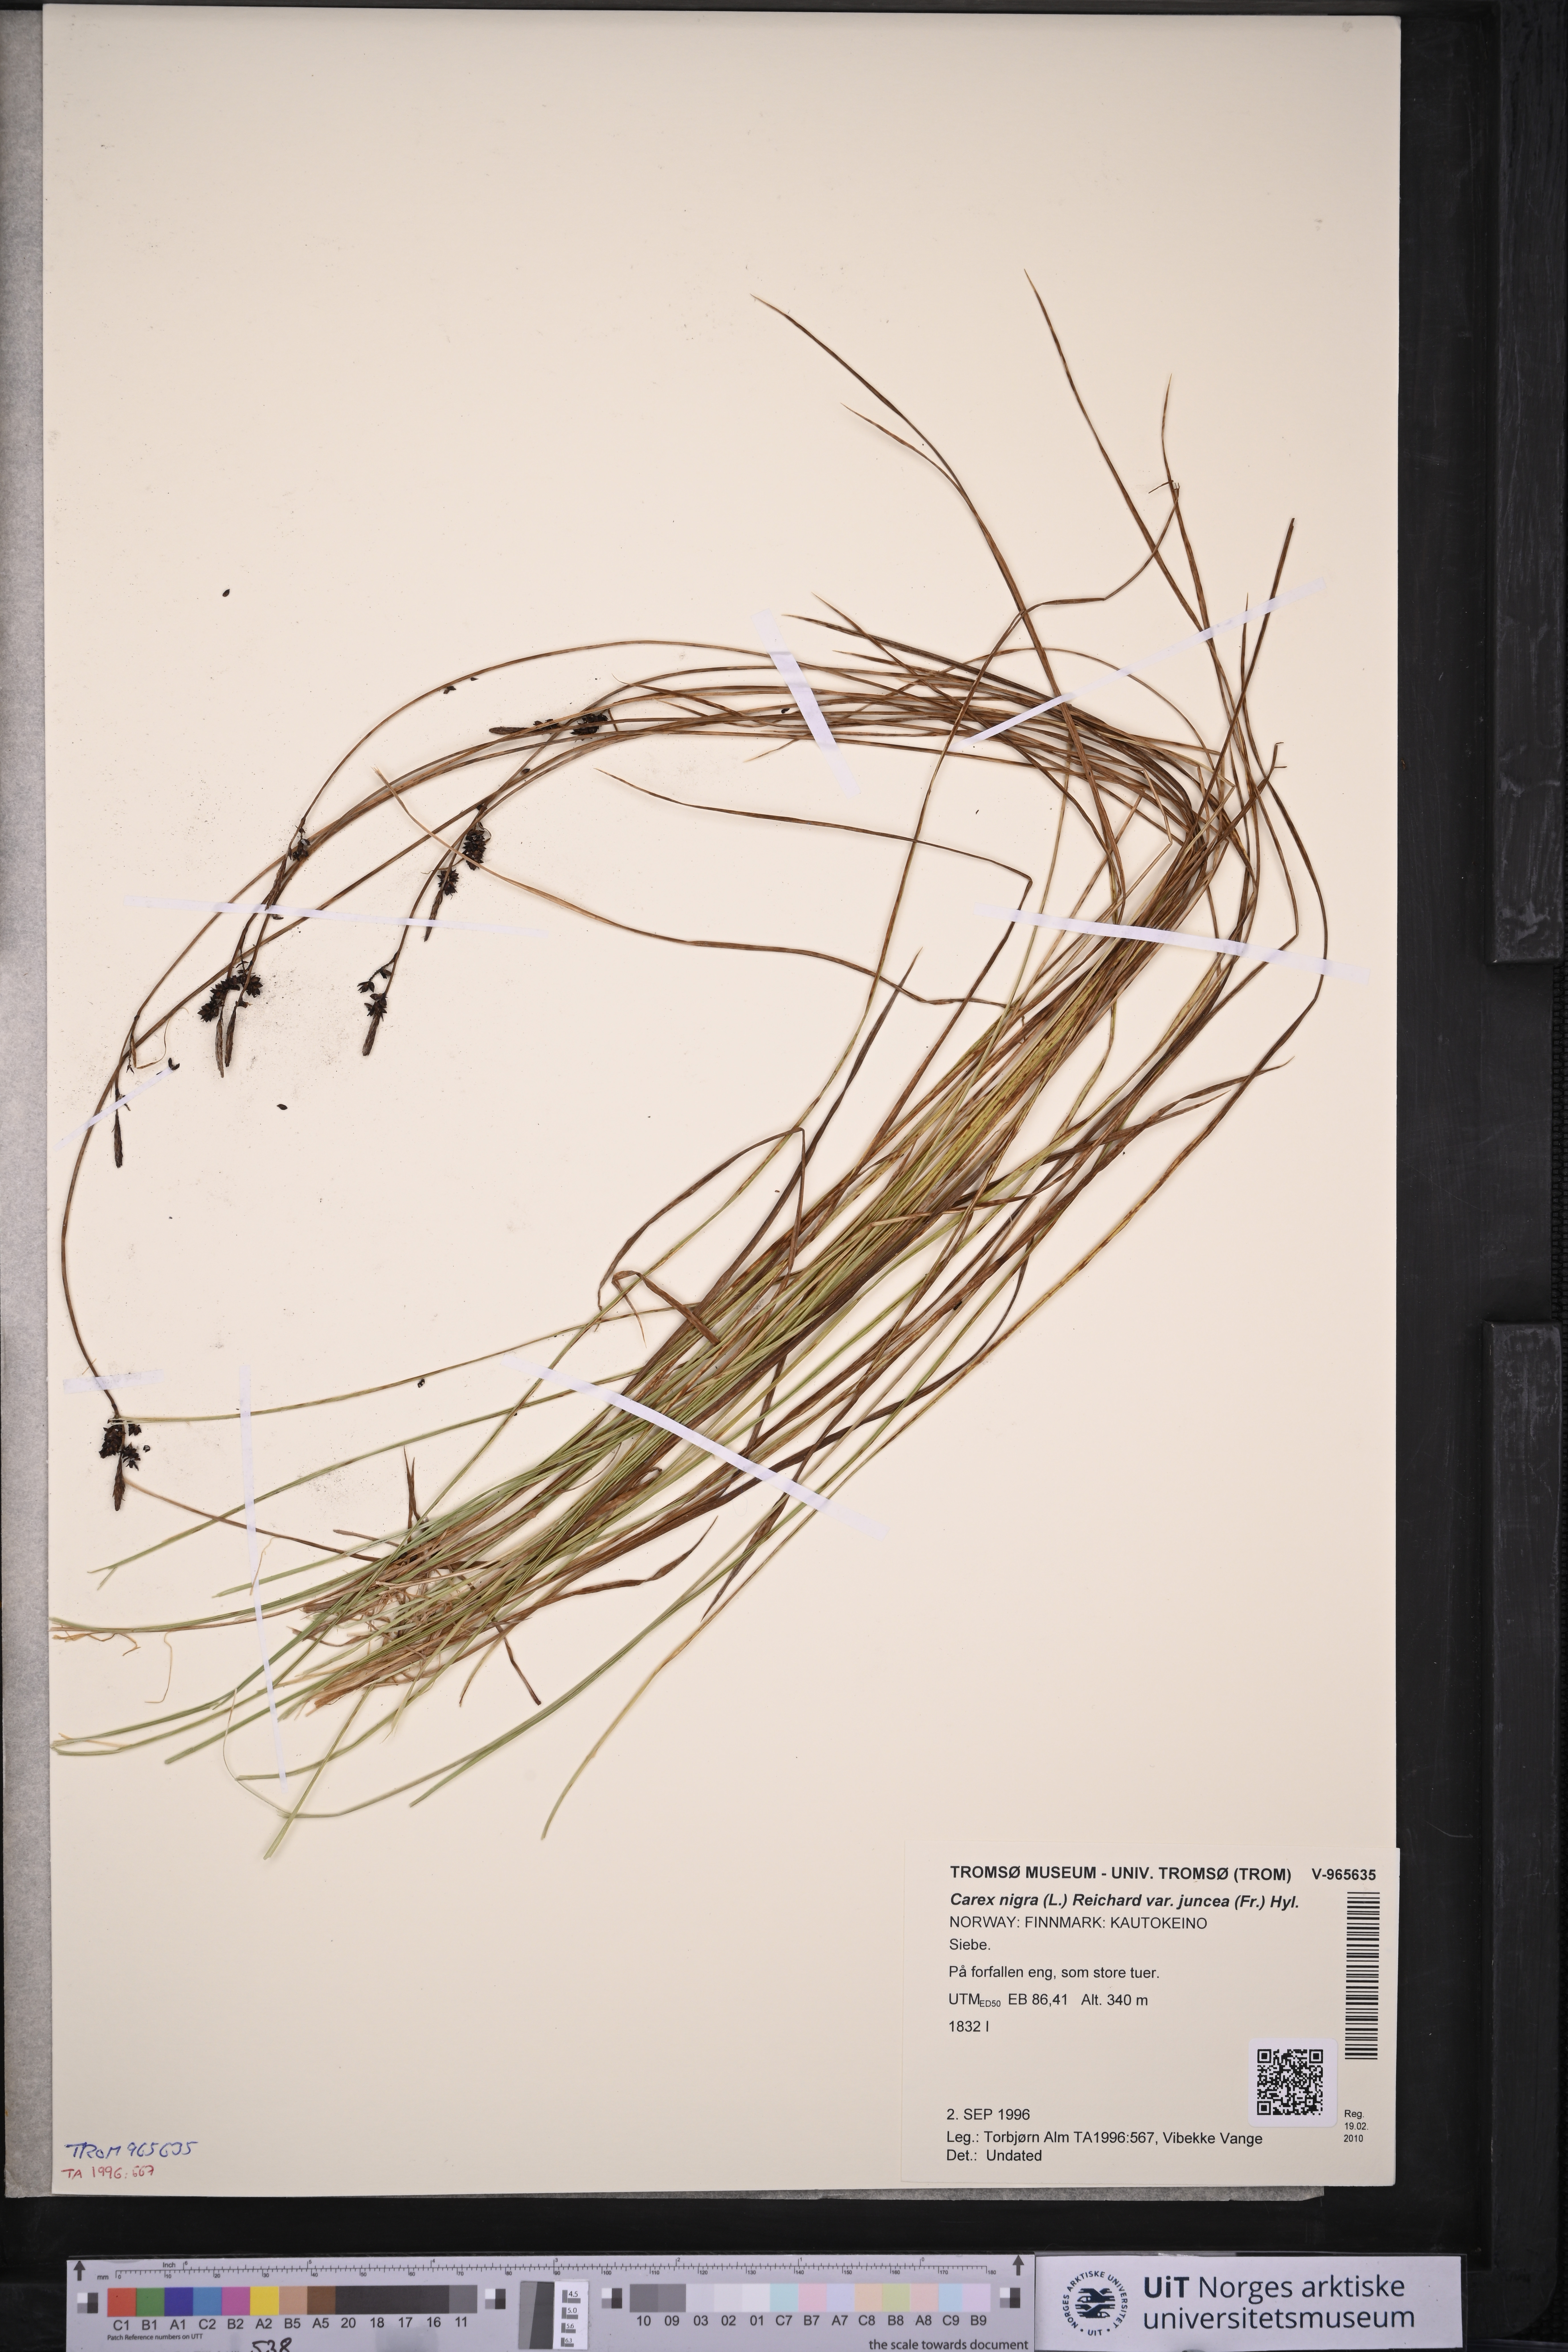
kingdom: Plantae
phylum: Tracheophyta
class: Liliopsida
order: Poales
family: Cyperaceae
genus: Carex
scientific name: Carex nigra
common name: Common sedge
